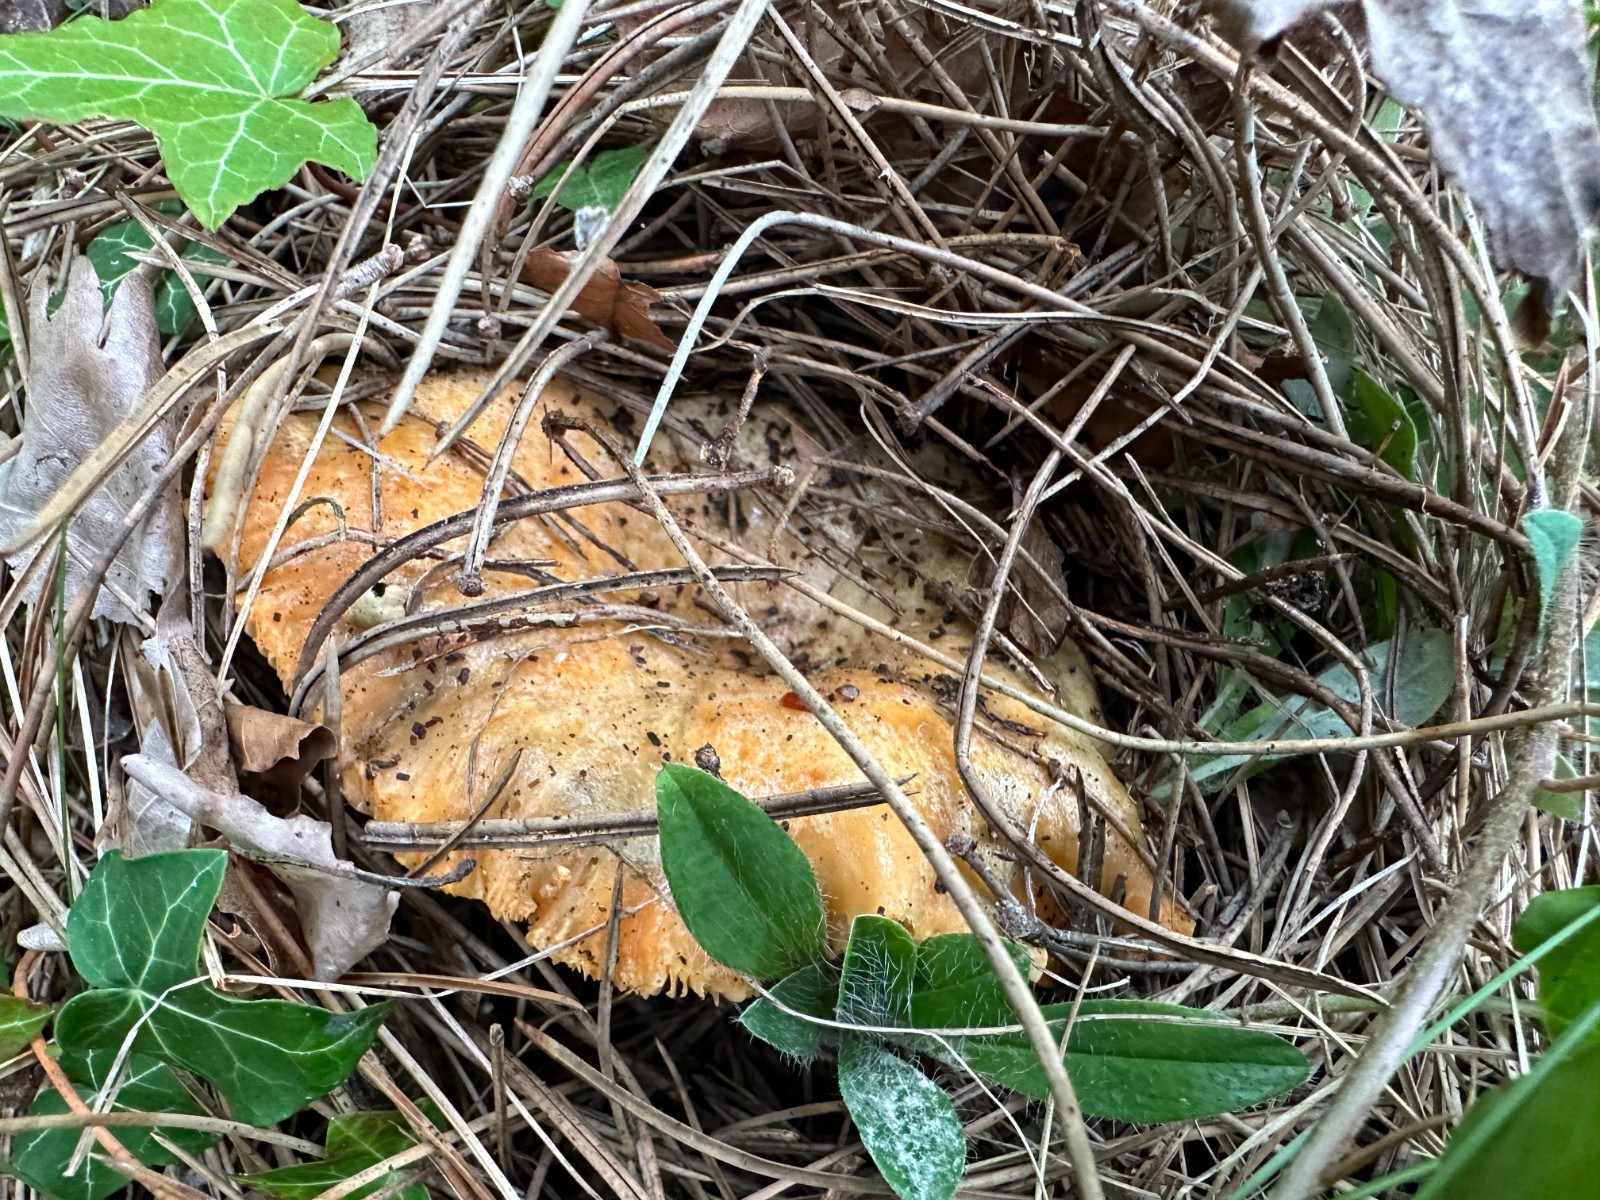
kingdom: Fungi
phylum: Basidiomycota
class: Agaricomycetes
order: Russulales
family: Russulaceae
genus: Lactarius
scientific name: Lactarius deliciosus
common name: velsmagende mælkehat
